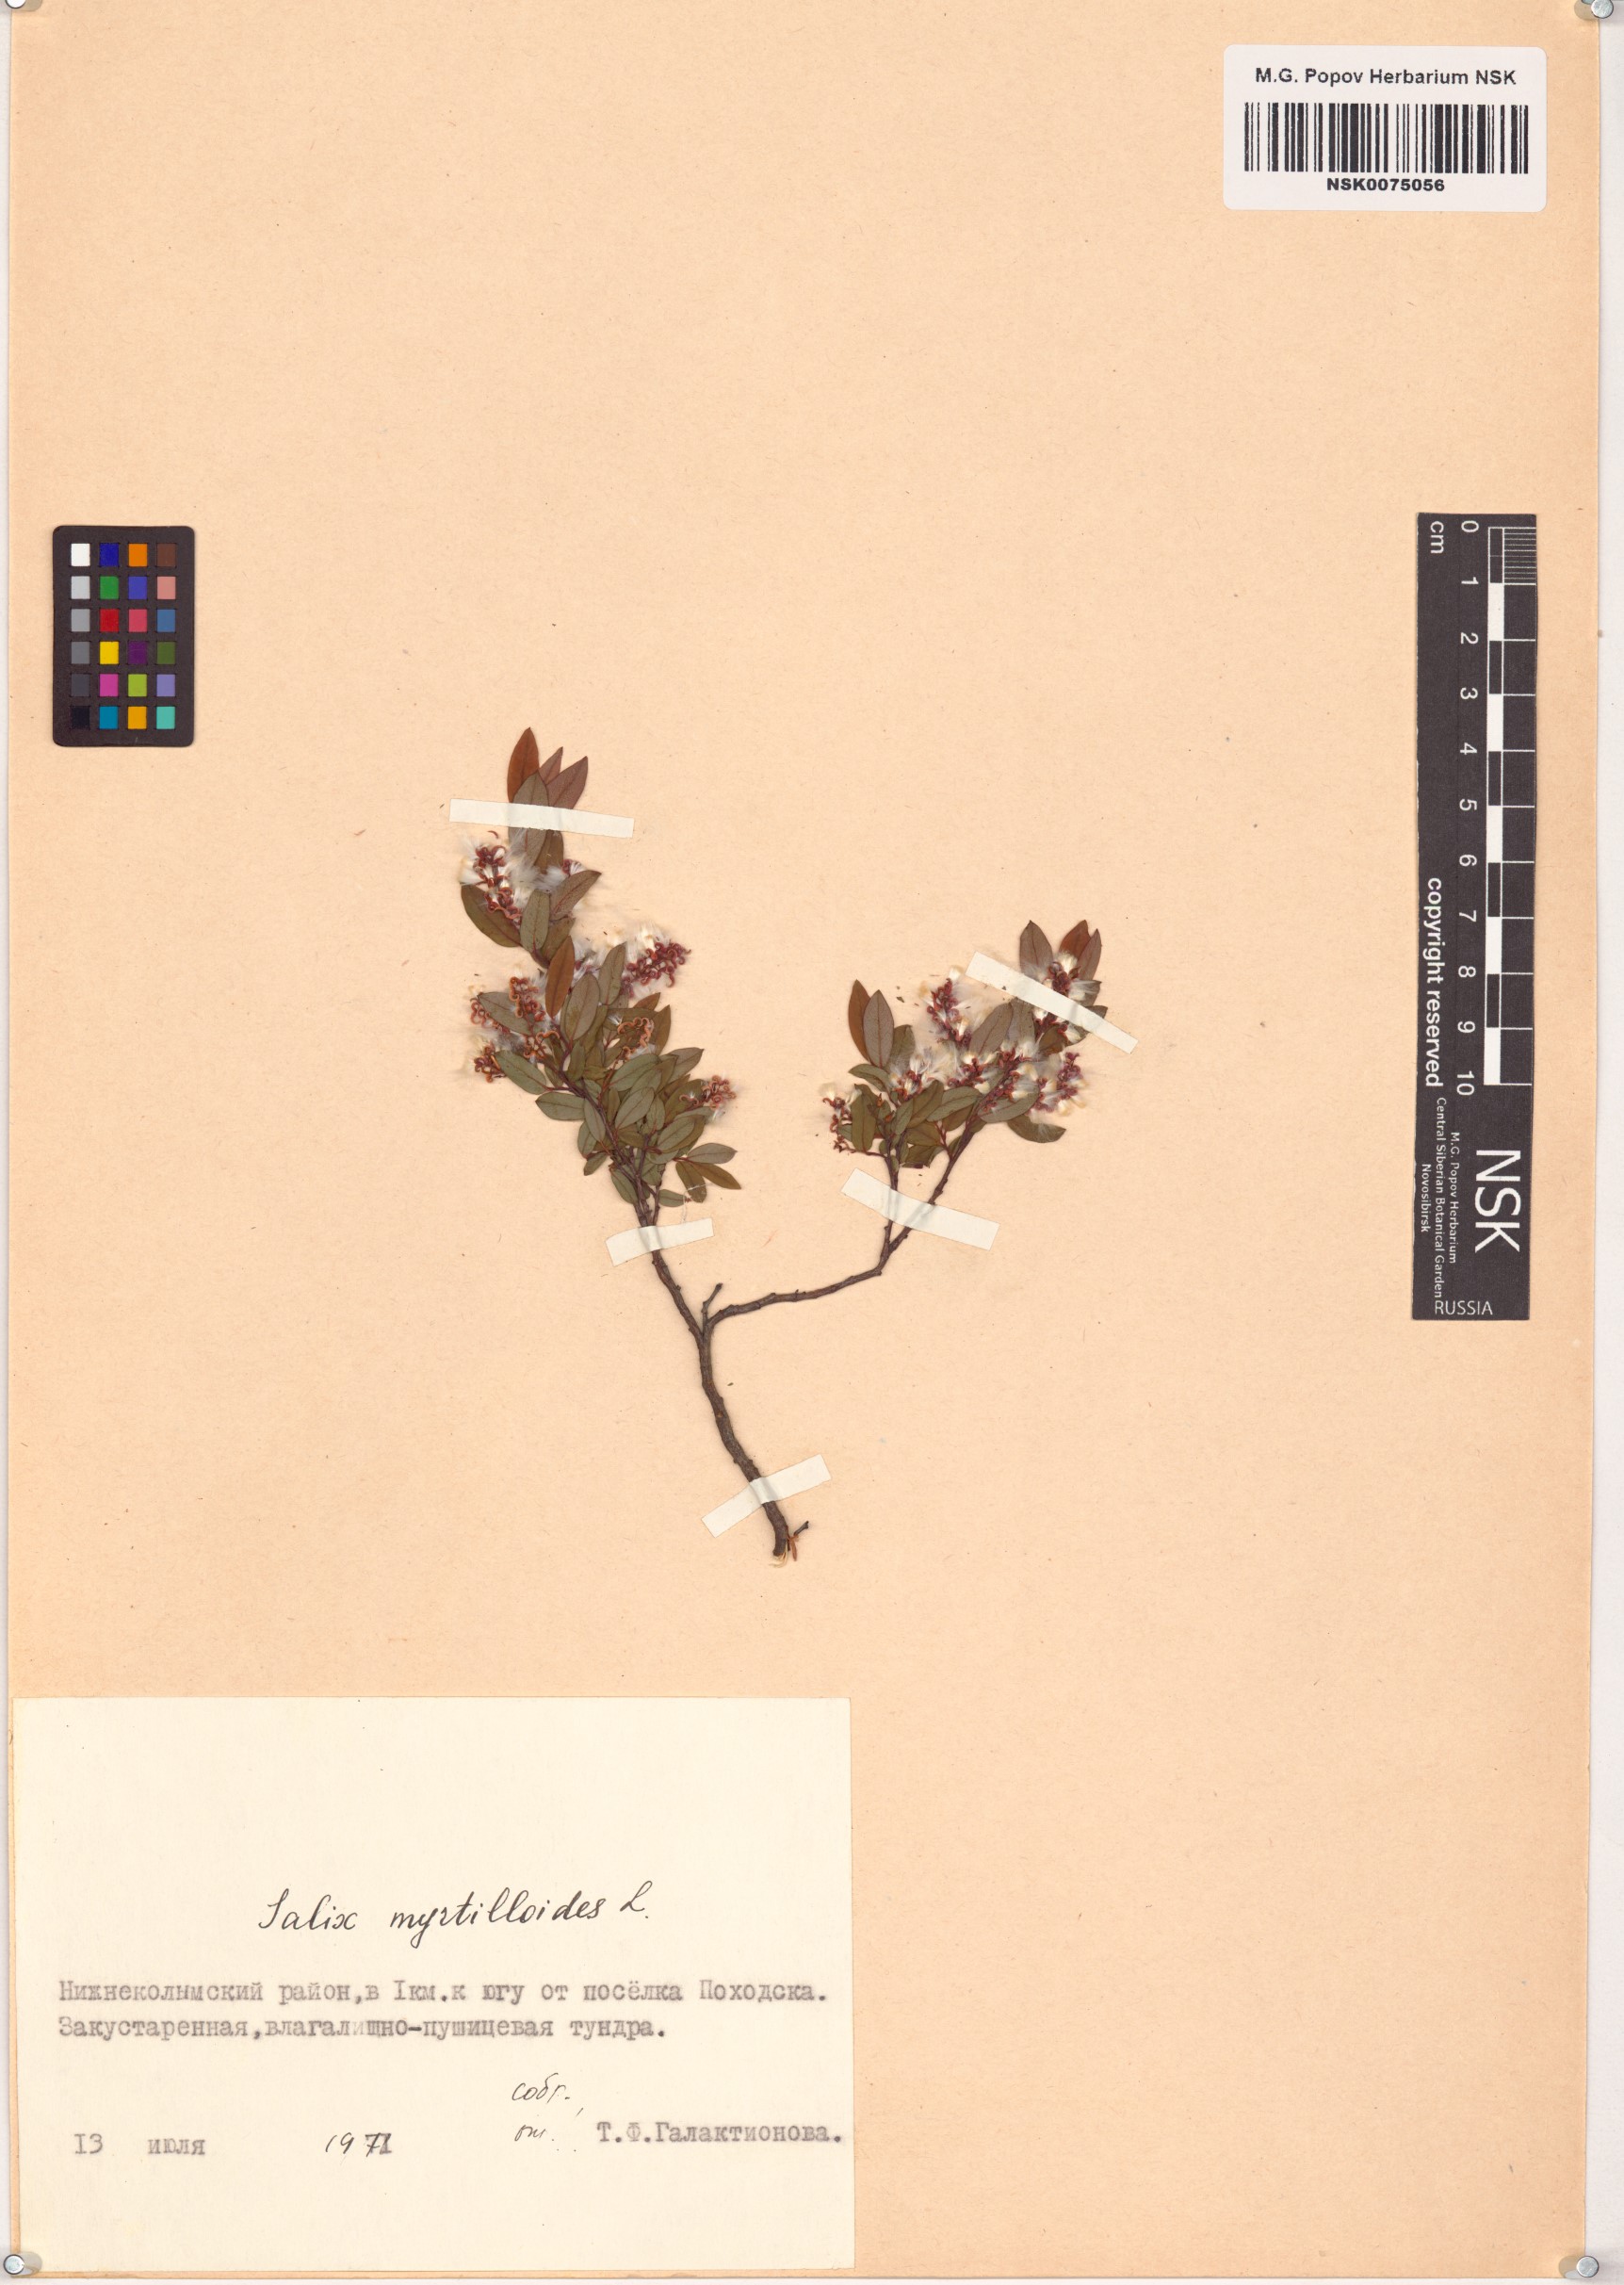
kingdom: Plantae
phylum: Tracheophyta
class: Magnoliopsida
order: Malpighiales
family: Salicaceae
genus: Salix
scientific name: Salix myrtilloides
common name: Myrtle-leaved willow
